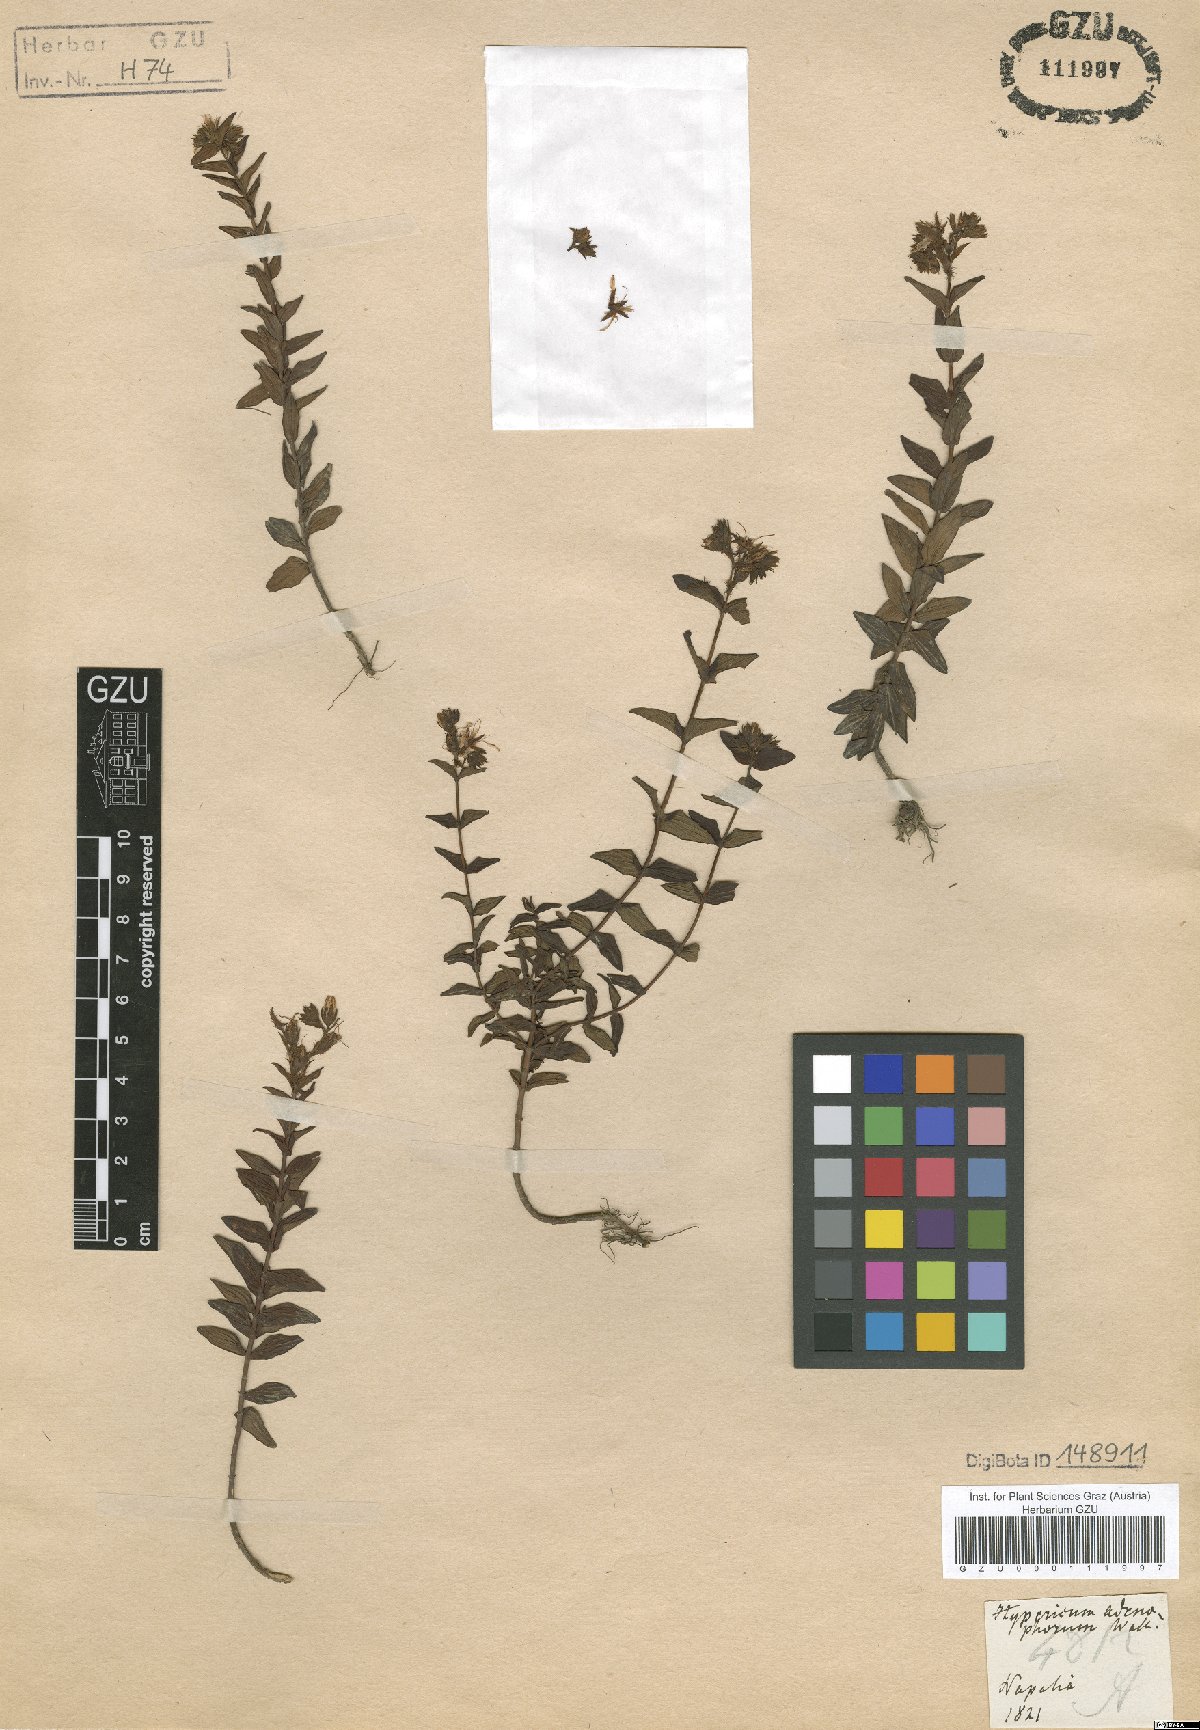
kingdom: Plantae
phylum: Tracheophyta
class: Magnoliopsida
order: Malpighiales
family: Hypericaceae
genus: Hypericum
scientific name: Hypericum elodeoides
